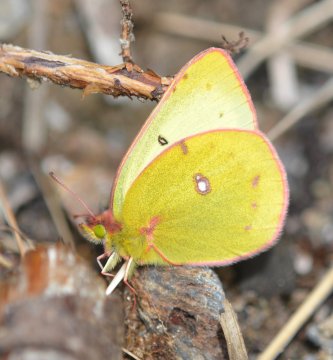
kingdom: Animalia
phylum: Arthropoda
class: Insecta
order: Lepidoptera
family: Pieridae
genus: Colias
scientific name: Colias philodice
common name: Clouded Sulphur
